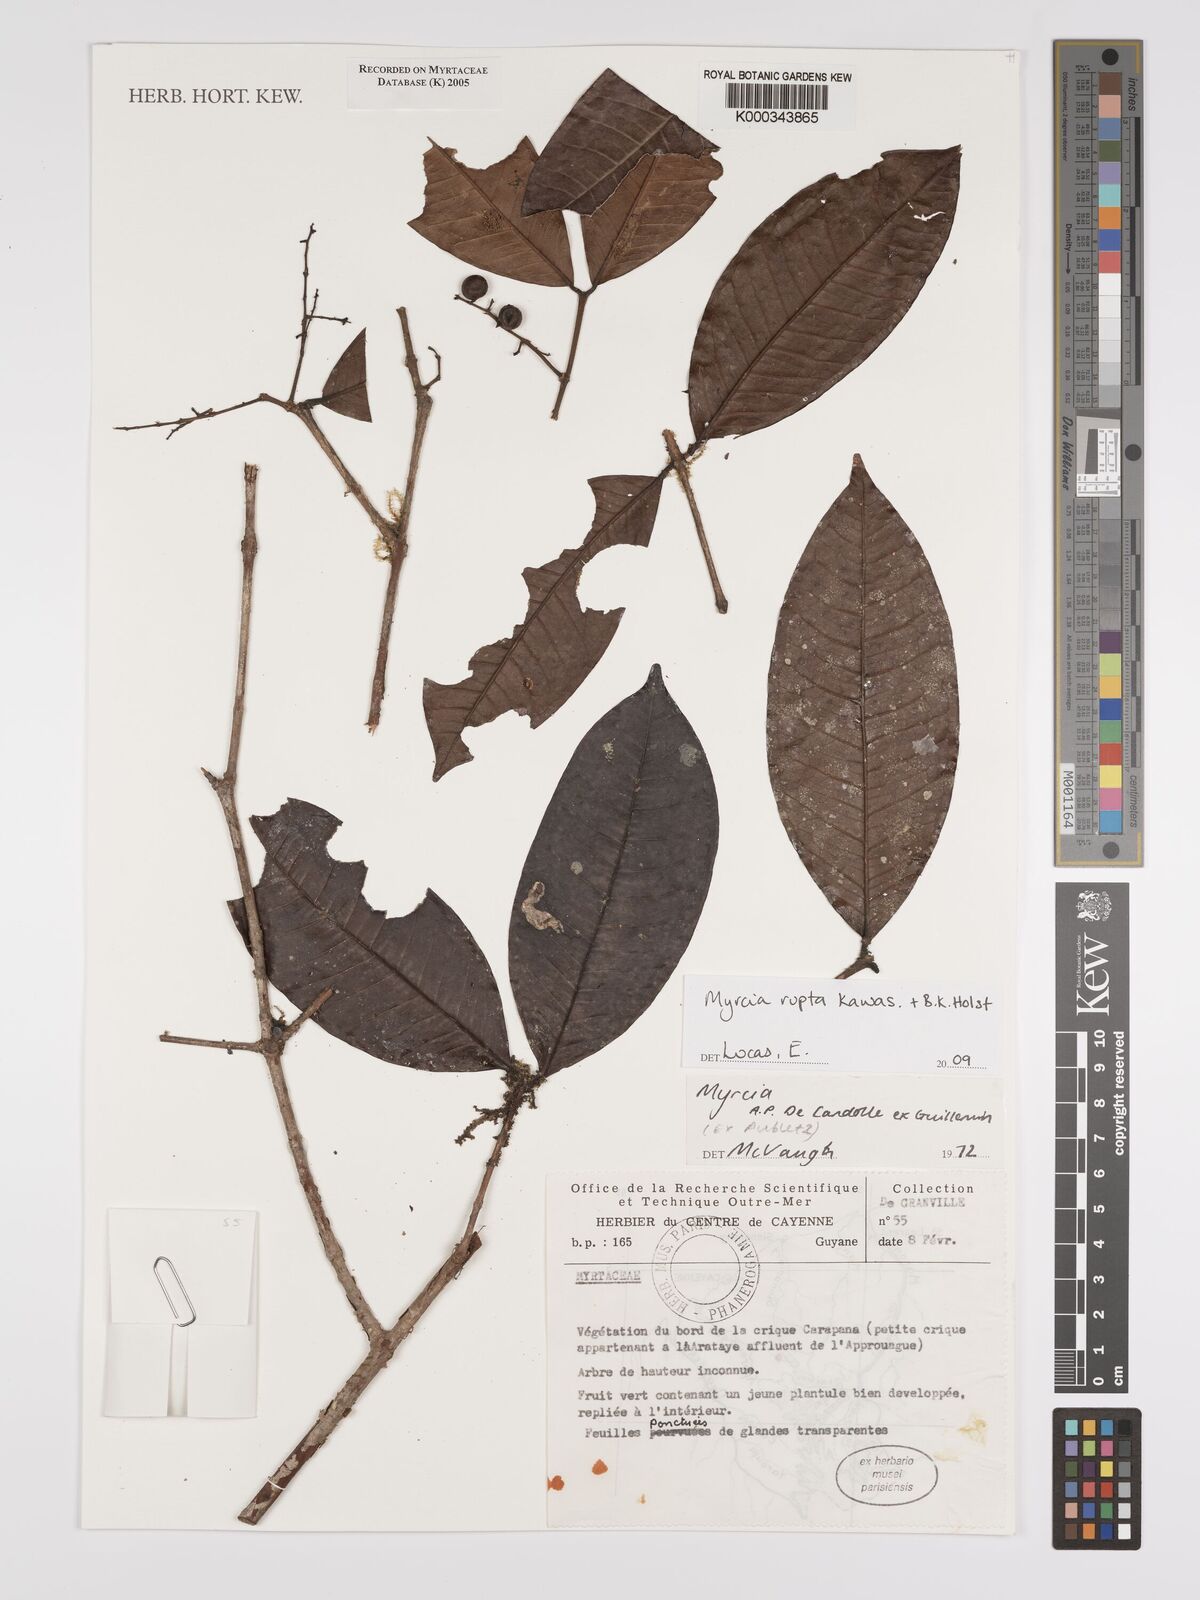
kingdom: Plantae
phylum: Tracheophyta
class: Magnoliopsida
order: Myrtales
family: Myrtaceae
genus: Myrcia
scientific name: Myrcia
